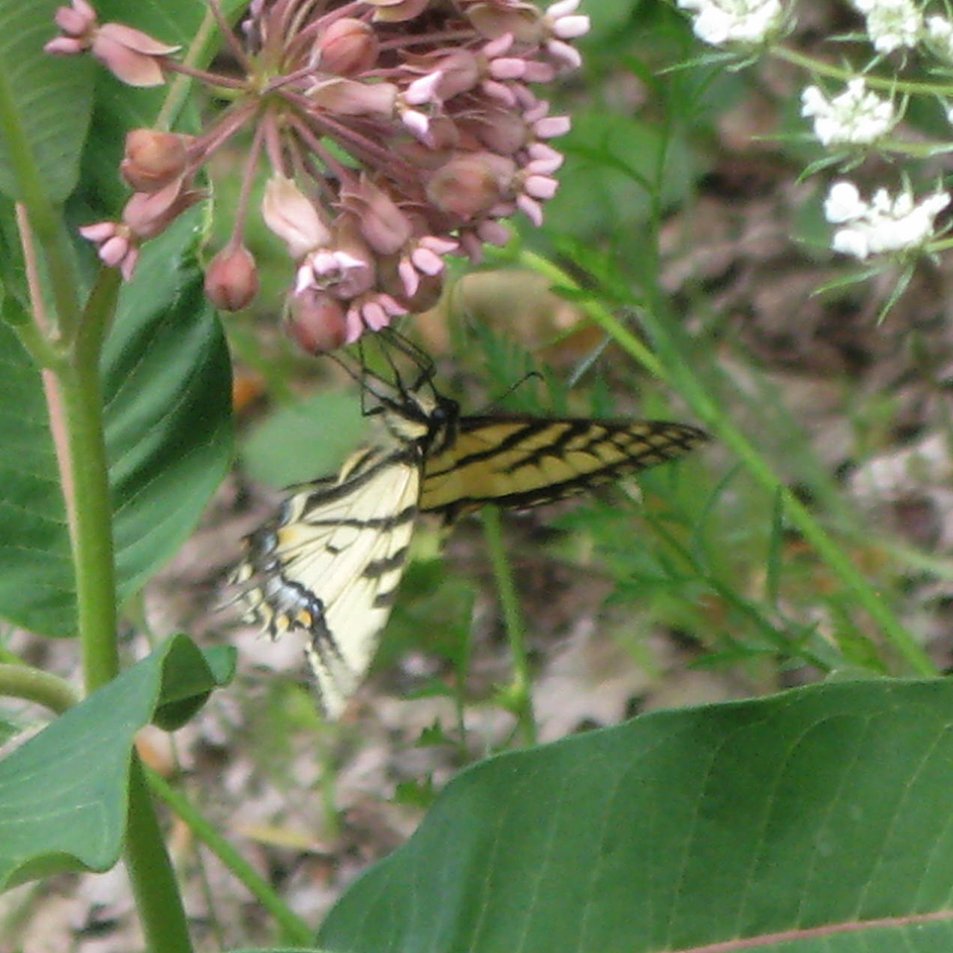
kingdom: Animalia
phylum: Arthropoda
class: Insecta
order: Lepidoptera
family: Papilionidae
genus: Pterourus
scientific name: Pterourus canadensis
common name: Canadian Tiger Swallowtail
